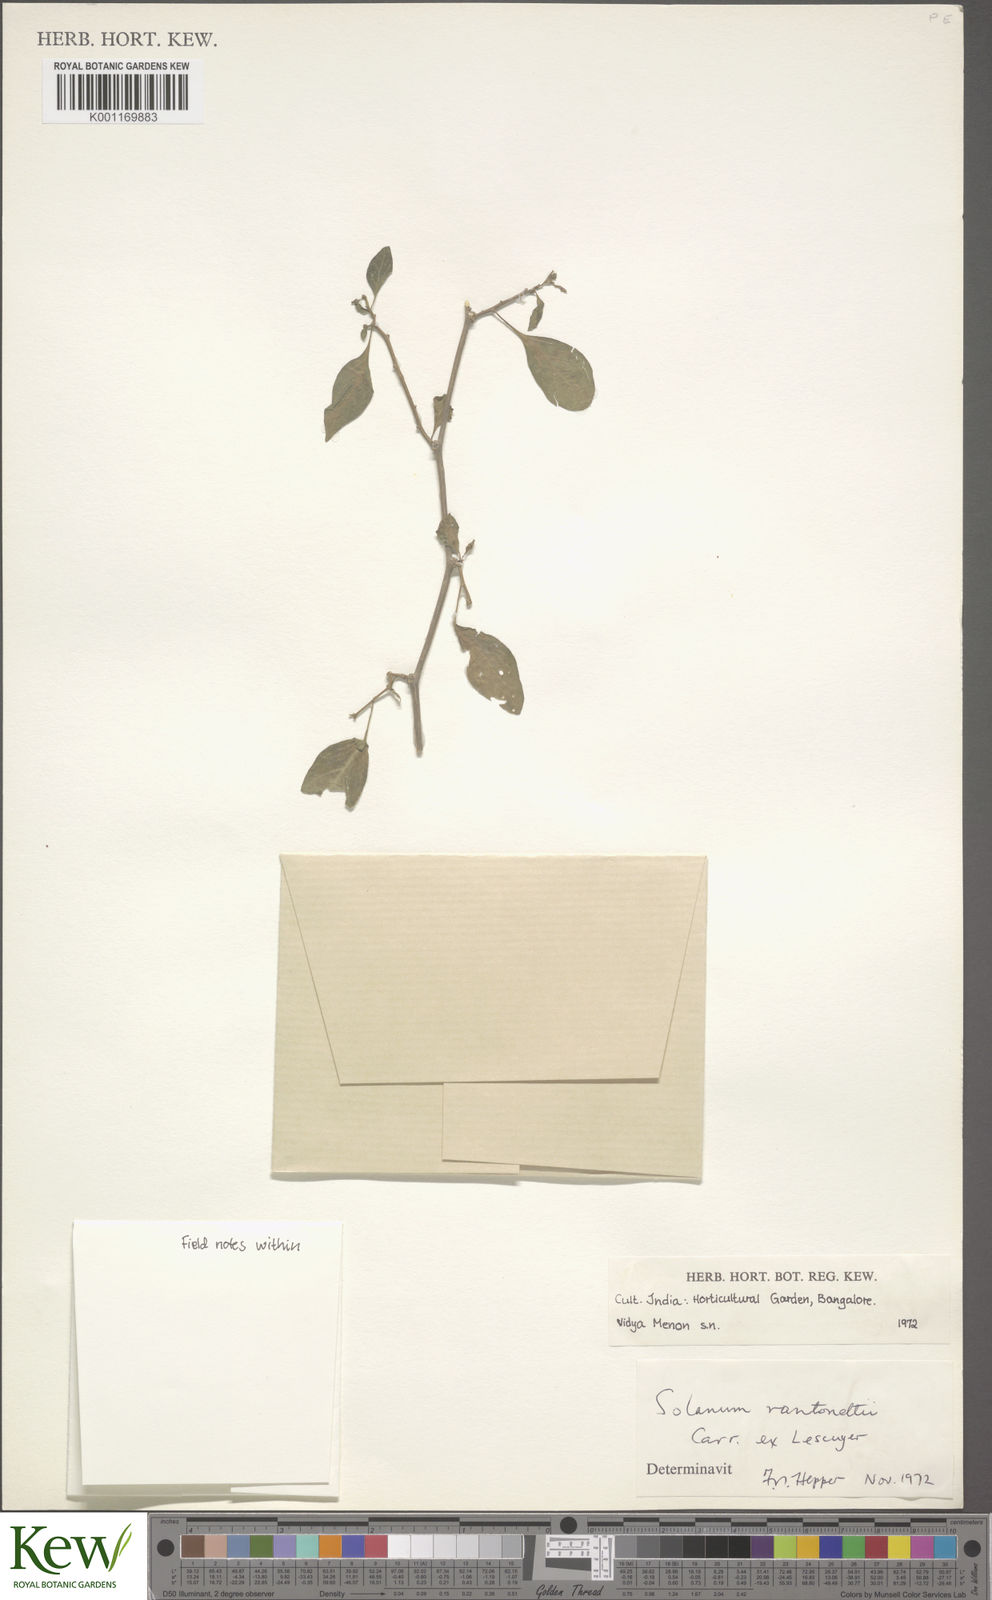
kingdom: Plantae
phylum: Tracheophyta
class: Magnoliopsida
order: Solanales
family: Solanaceae
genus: Solanum
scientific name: Solanum
